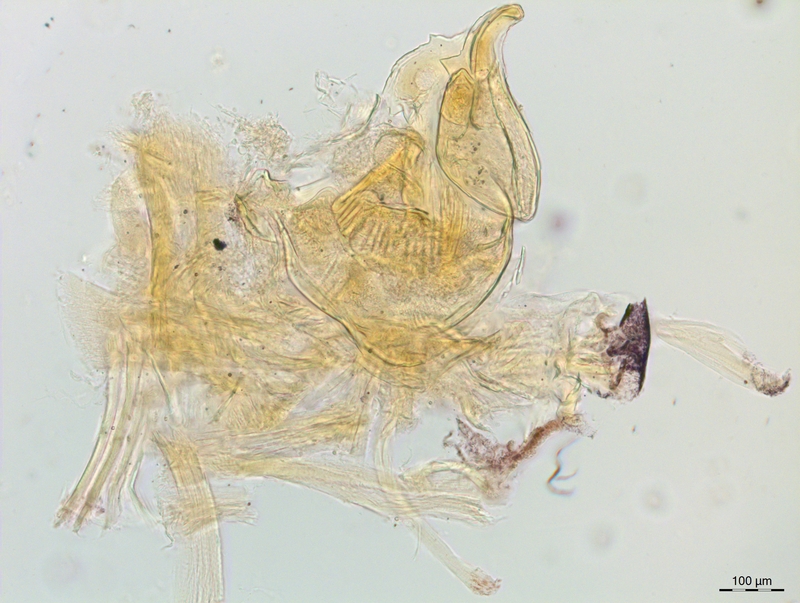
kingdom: Animalia
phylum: Arthropoda
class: Diplopoda
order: Chordeumatida
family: Craspedosomatidae
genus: Craspedosoma
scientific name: Craspedosoma alemannicum
